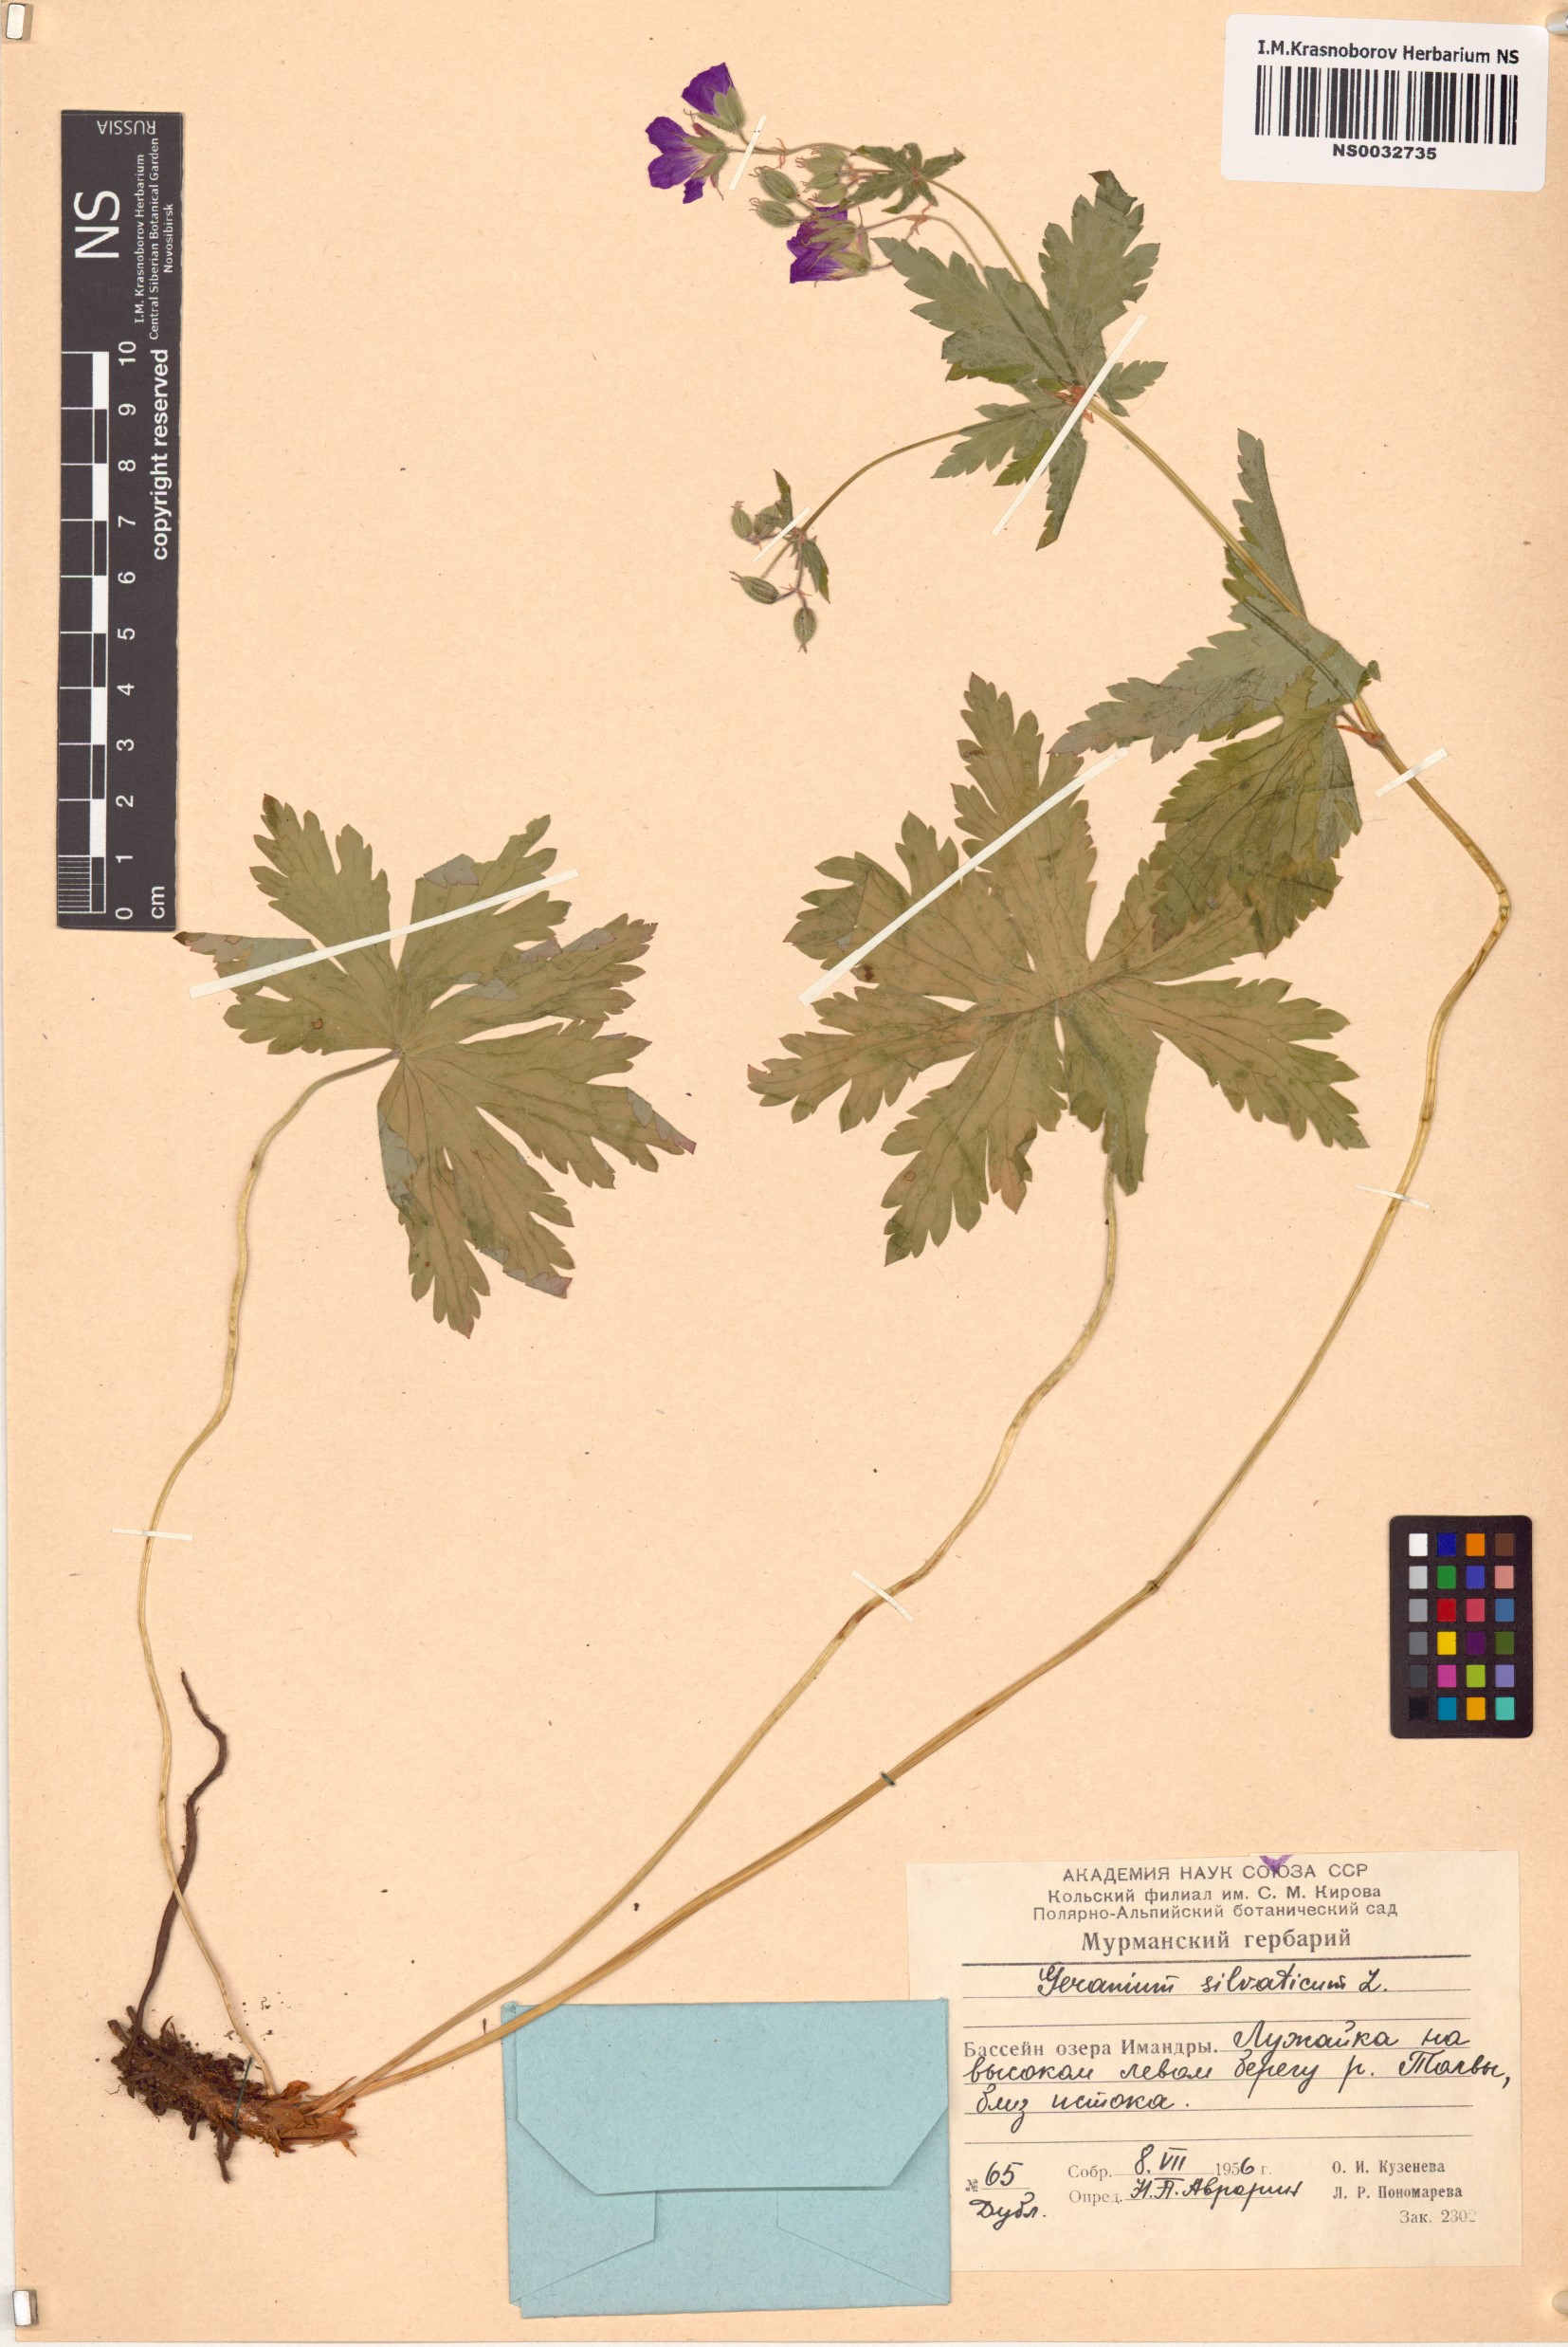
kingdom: Plantae
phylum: Tracheophyta
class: Magnoliopsida
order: Geraniales
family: Geraniaceae
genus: Geranium
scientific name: Geranium sylvaticum
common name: Wood crane's-bill
